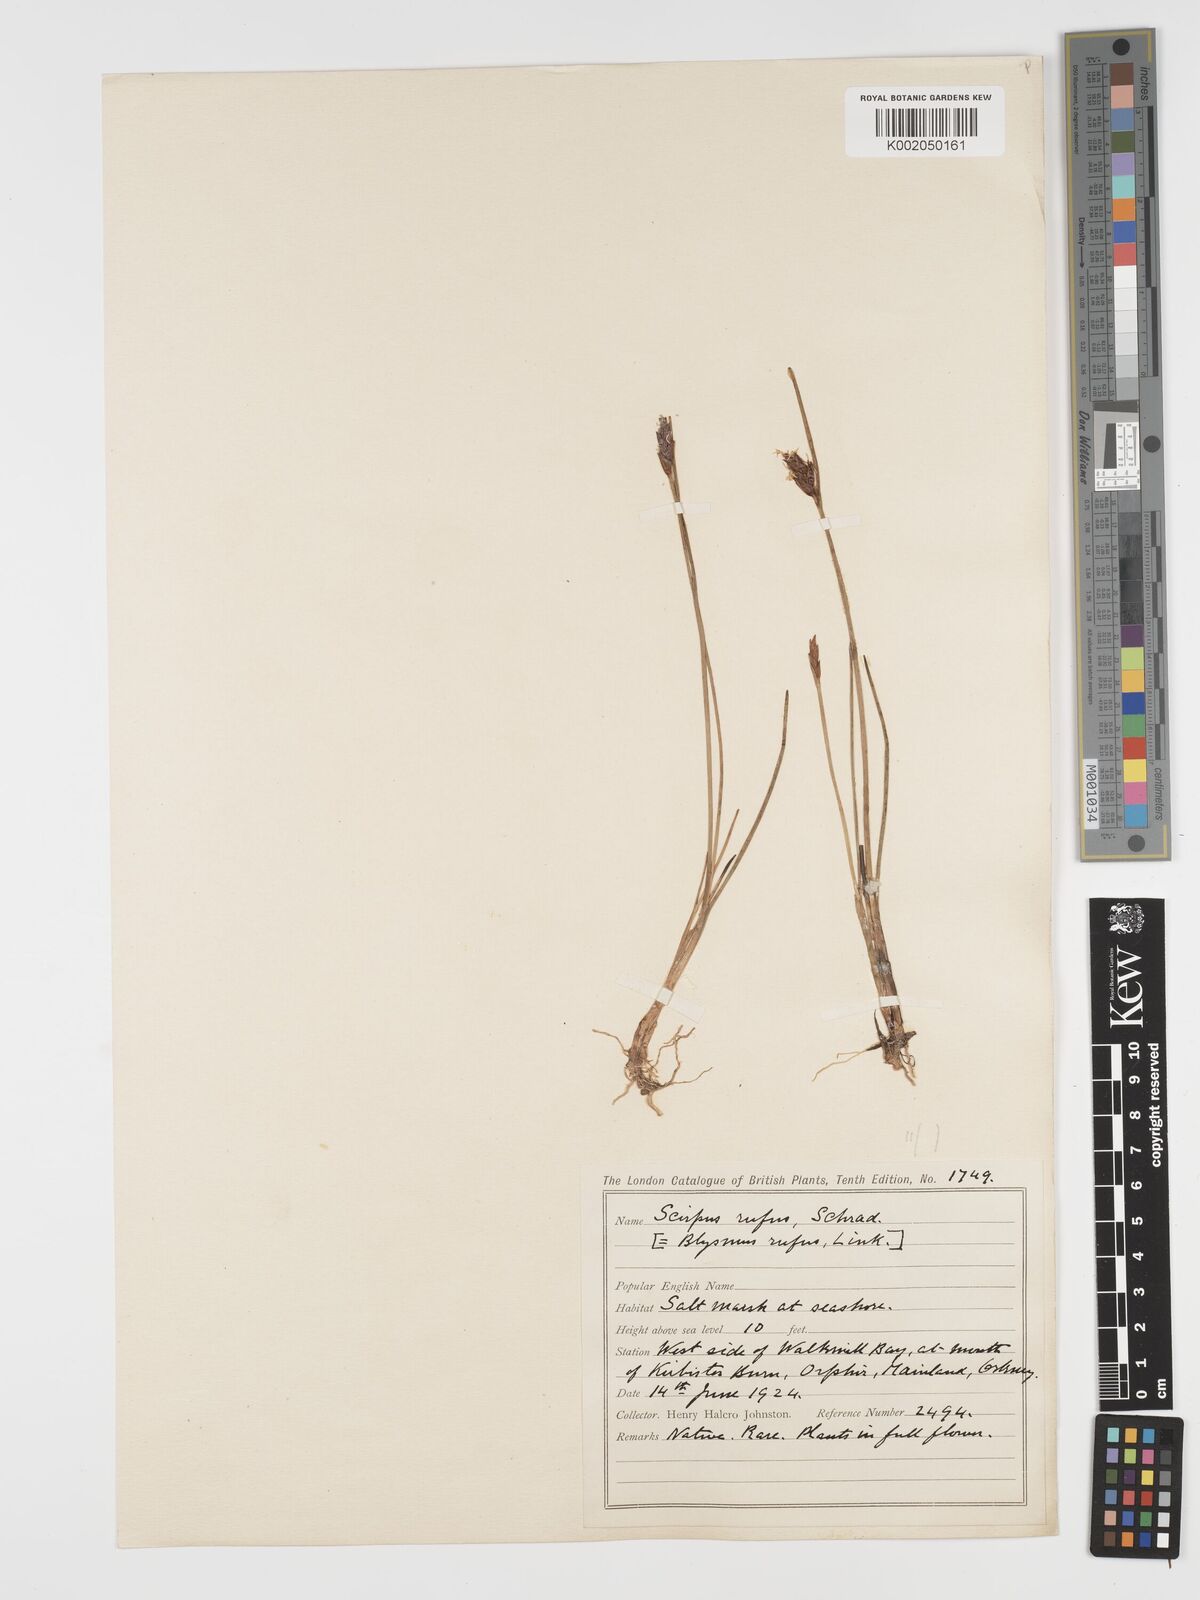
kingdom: Plantae
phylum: Tracheophyta
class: Liliopsida
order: Poales
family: Cyperaceae
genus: Blysmus
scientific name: Blysmus rufus
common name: Saltmarsh flat-sedge
